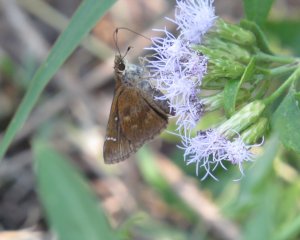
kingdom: Animalia
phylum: Arthropoda
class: Insecta
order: Lepidoptera
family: Hesperiidae
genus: Lerema
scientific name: Lerema accius
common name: Clouded Skipper
